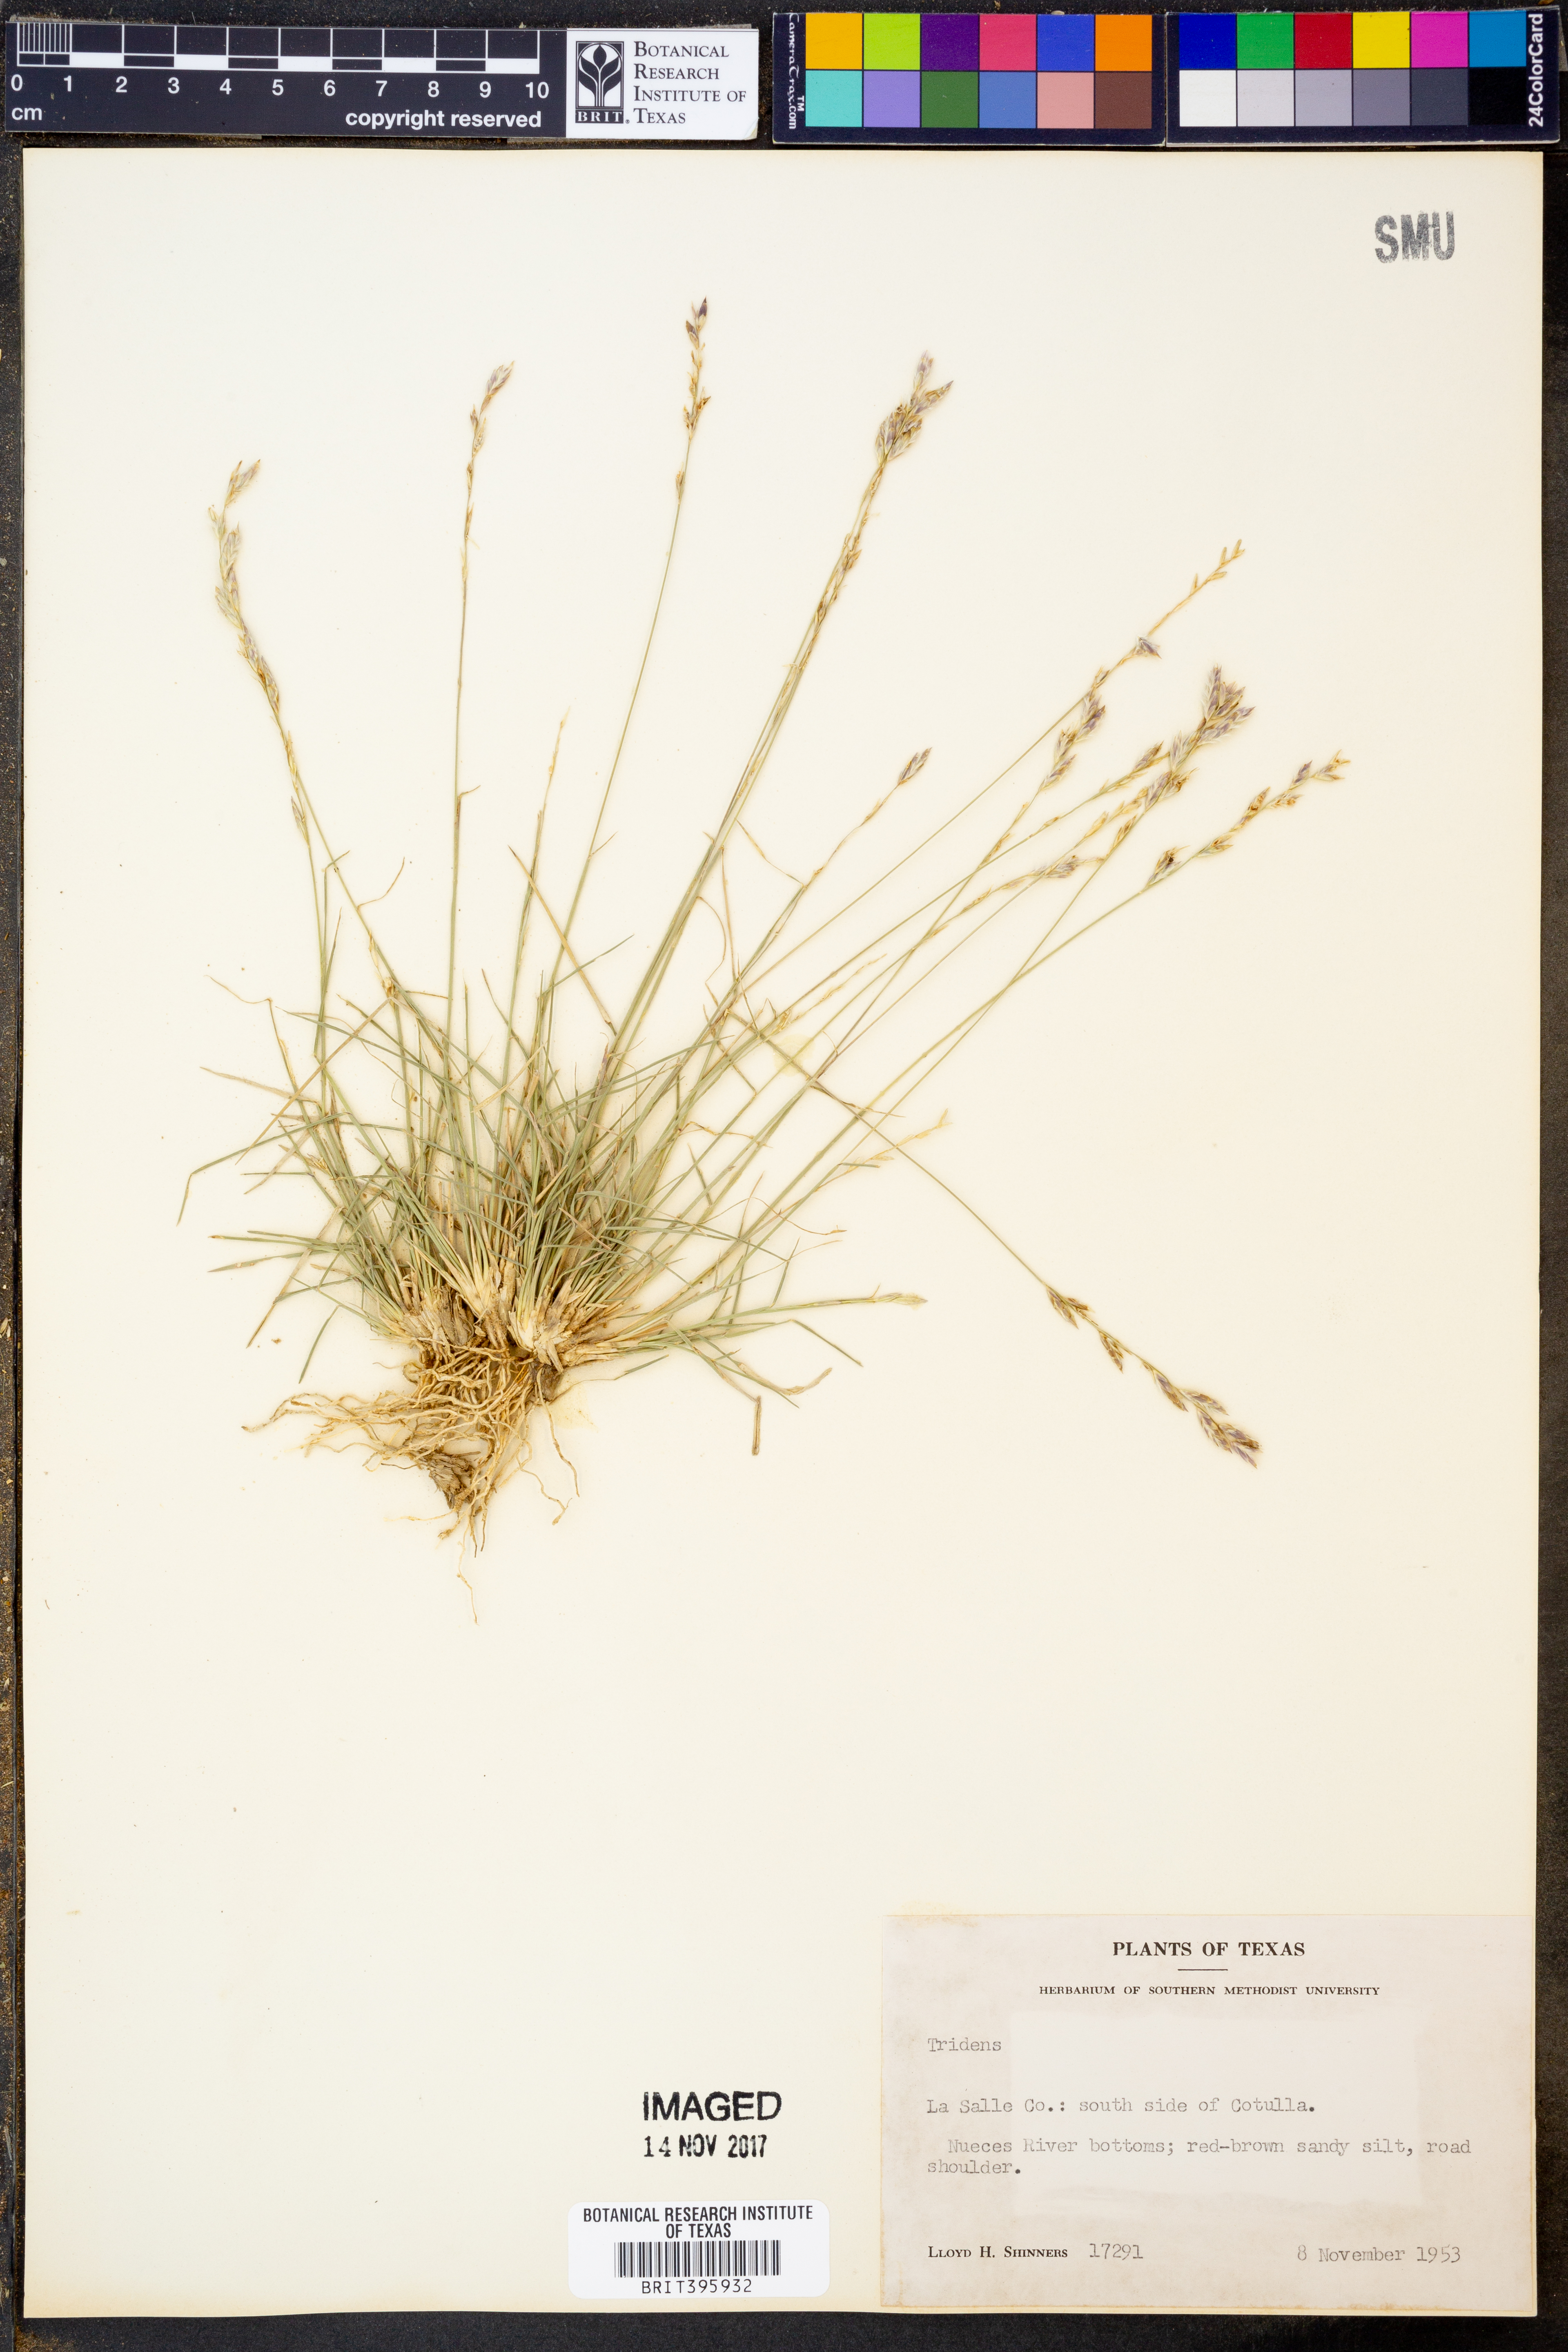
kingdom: Plantae
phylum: Tracheophyta
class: Liliopsida
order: Poales
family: Poaceae
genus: Tridens
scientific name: Tridens
